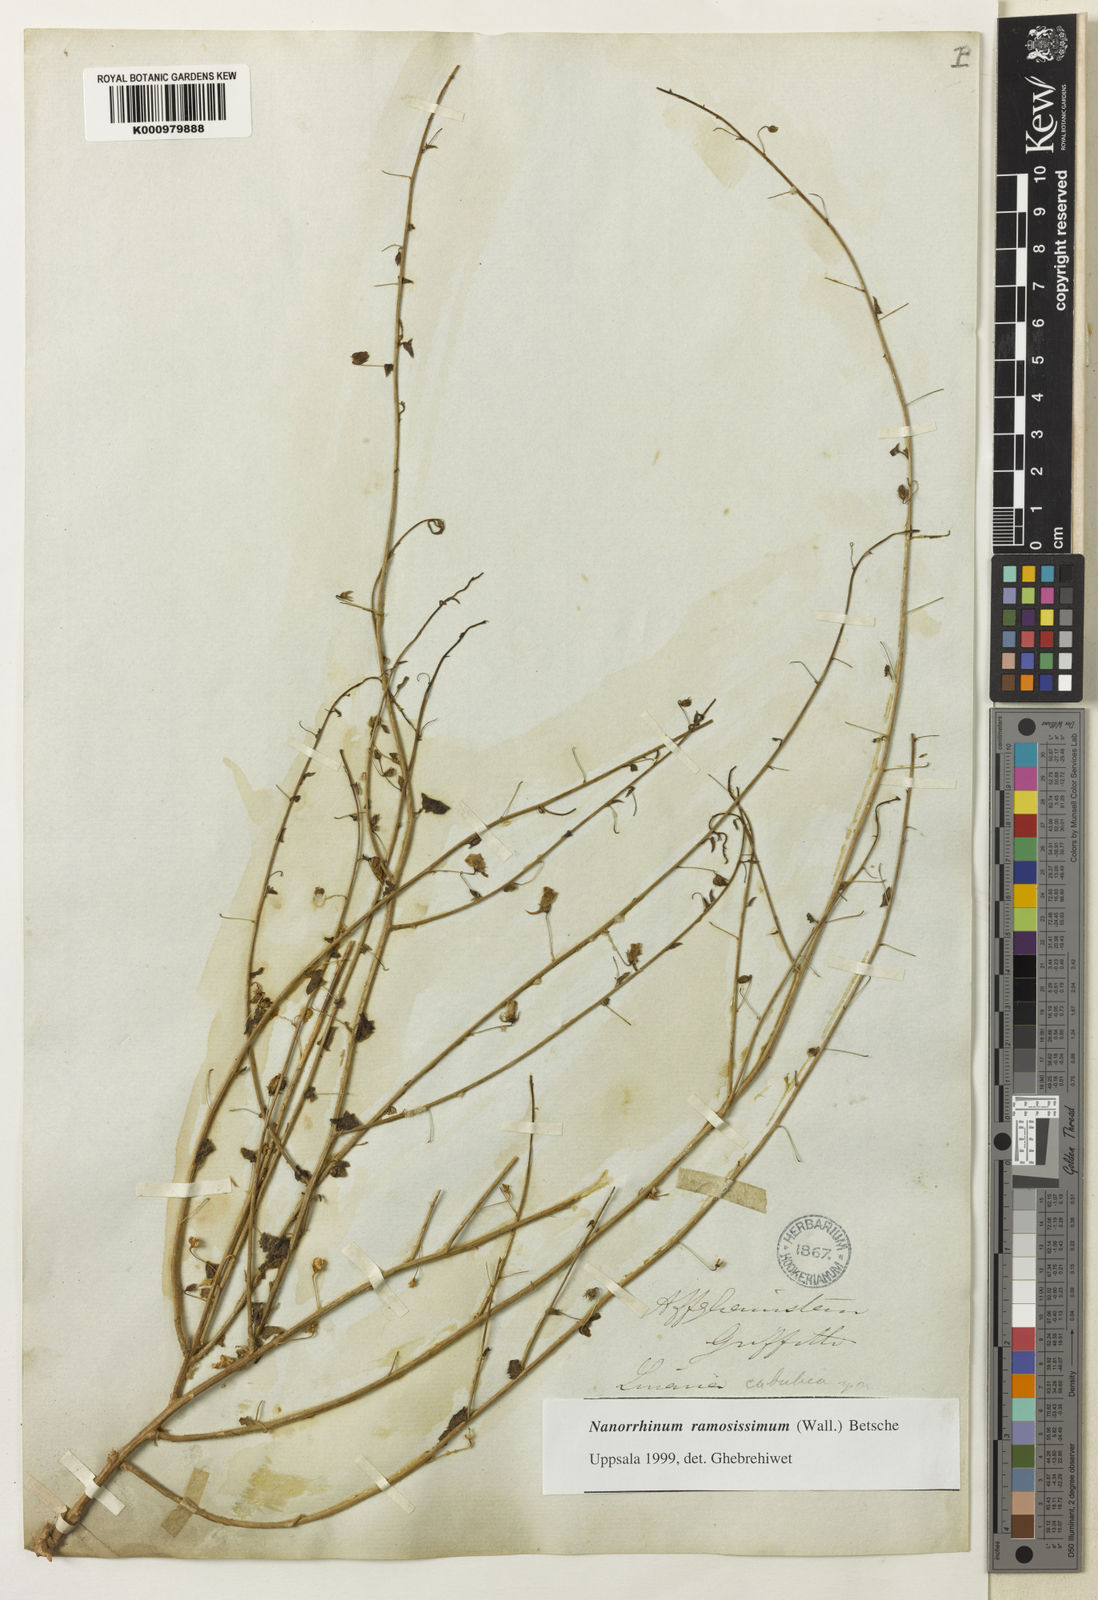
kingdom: Plantae
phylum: Tracheophyta
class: Magnoliopsida
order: Lamiales
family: Plantaginaceae
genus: Nanorrhinum
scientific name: Nanorrhinum cabulicum
